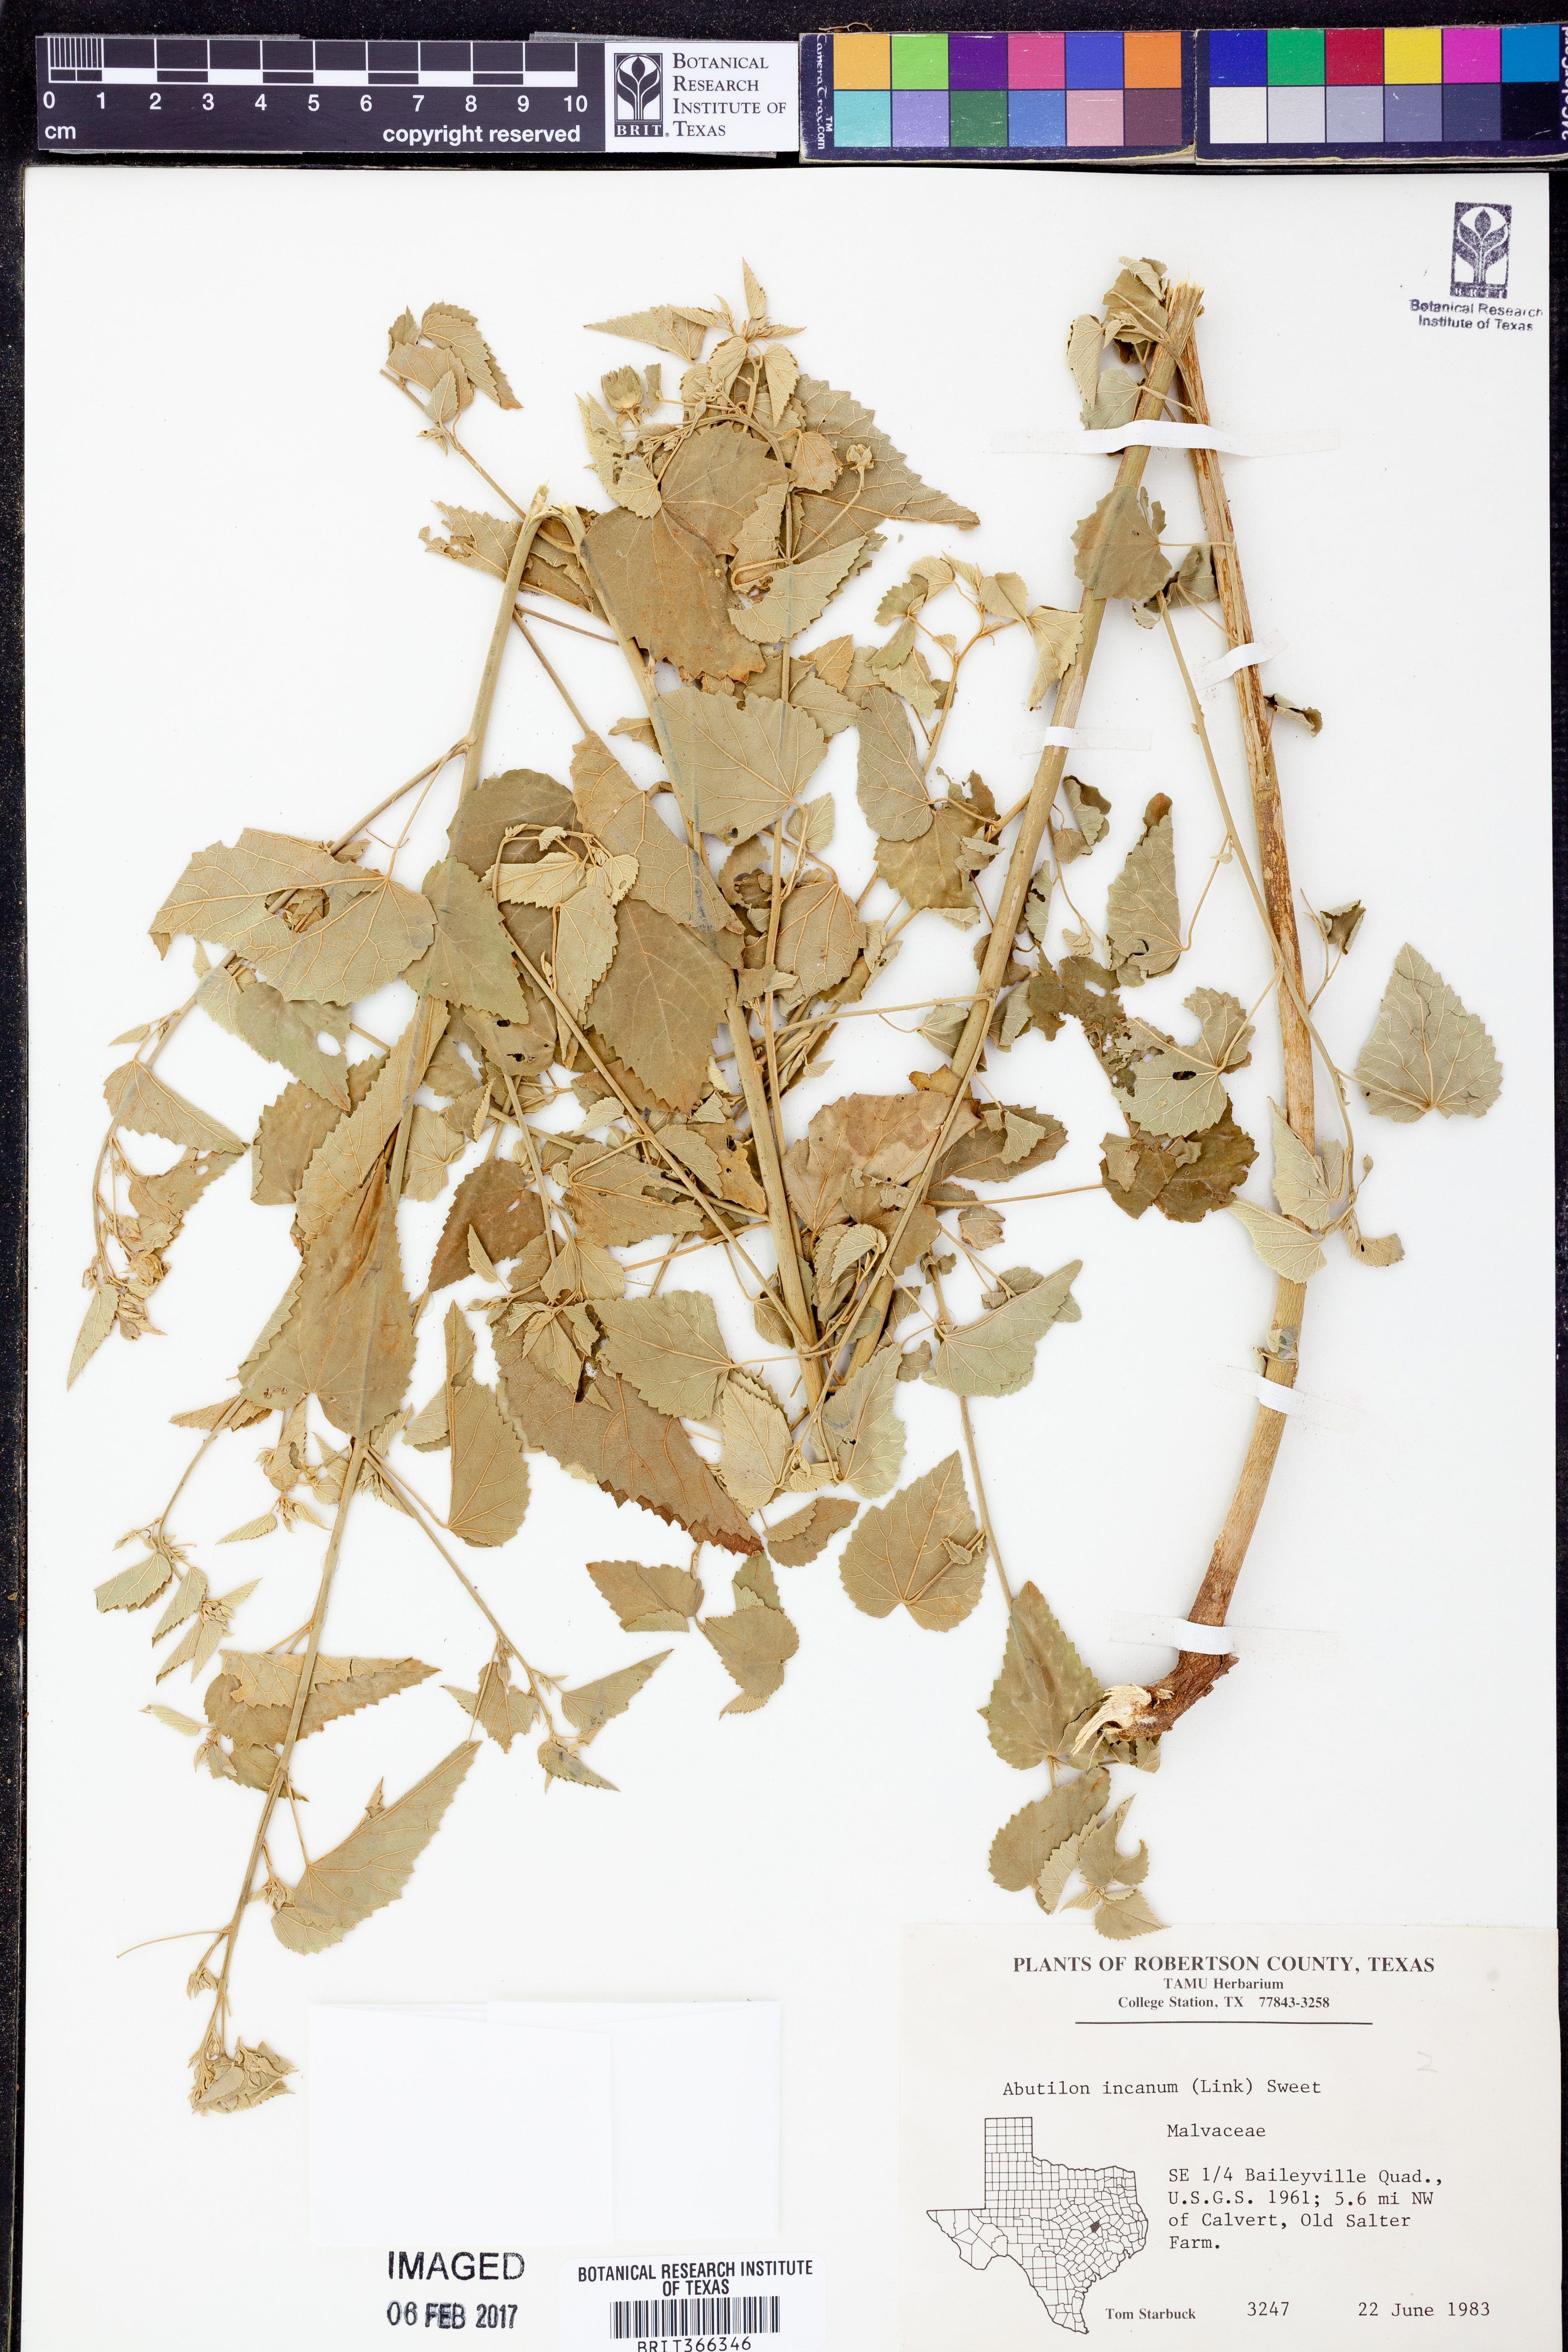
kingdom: Plantae
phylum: Tracheophyta
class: Magnoliopsida
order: Malvales
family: Malvaceae
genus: Abutilon
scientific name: Abutilon incanum
